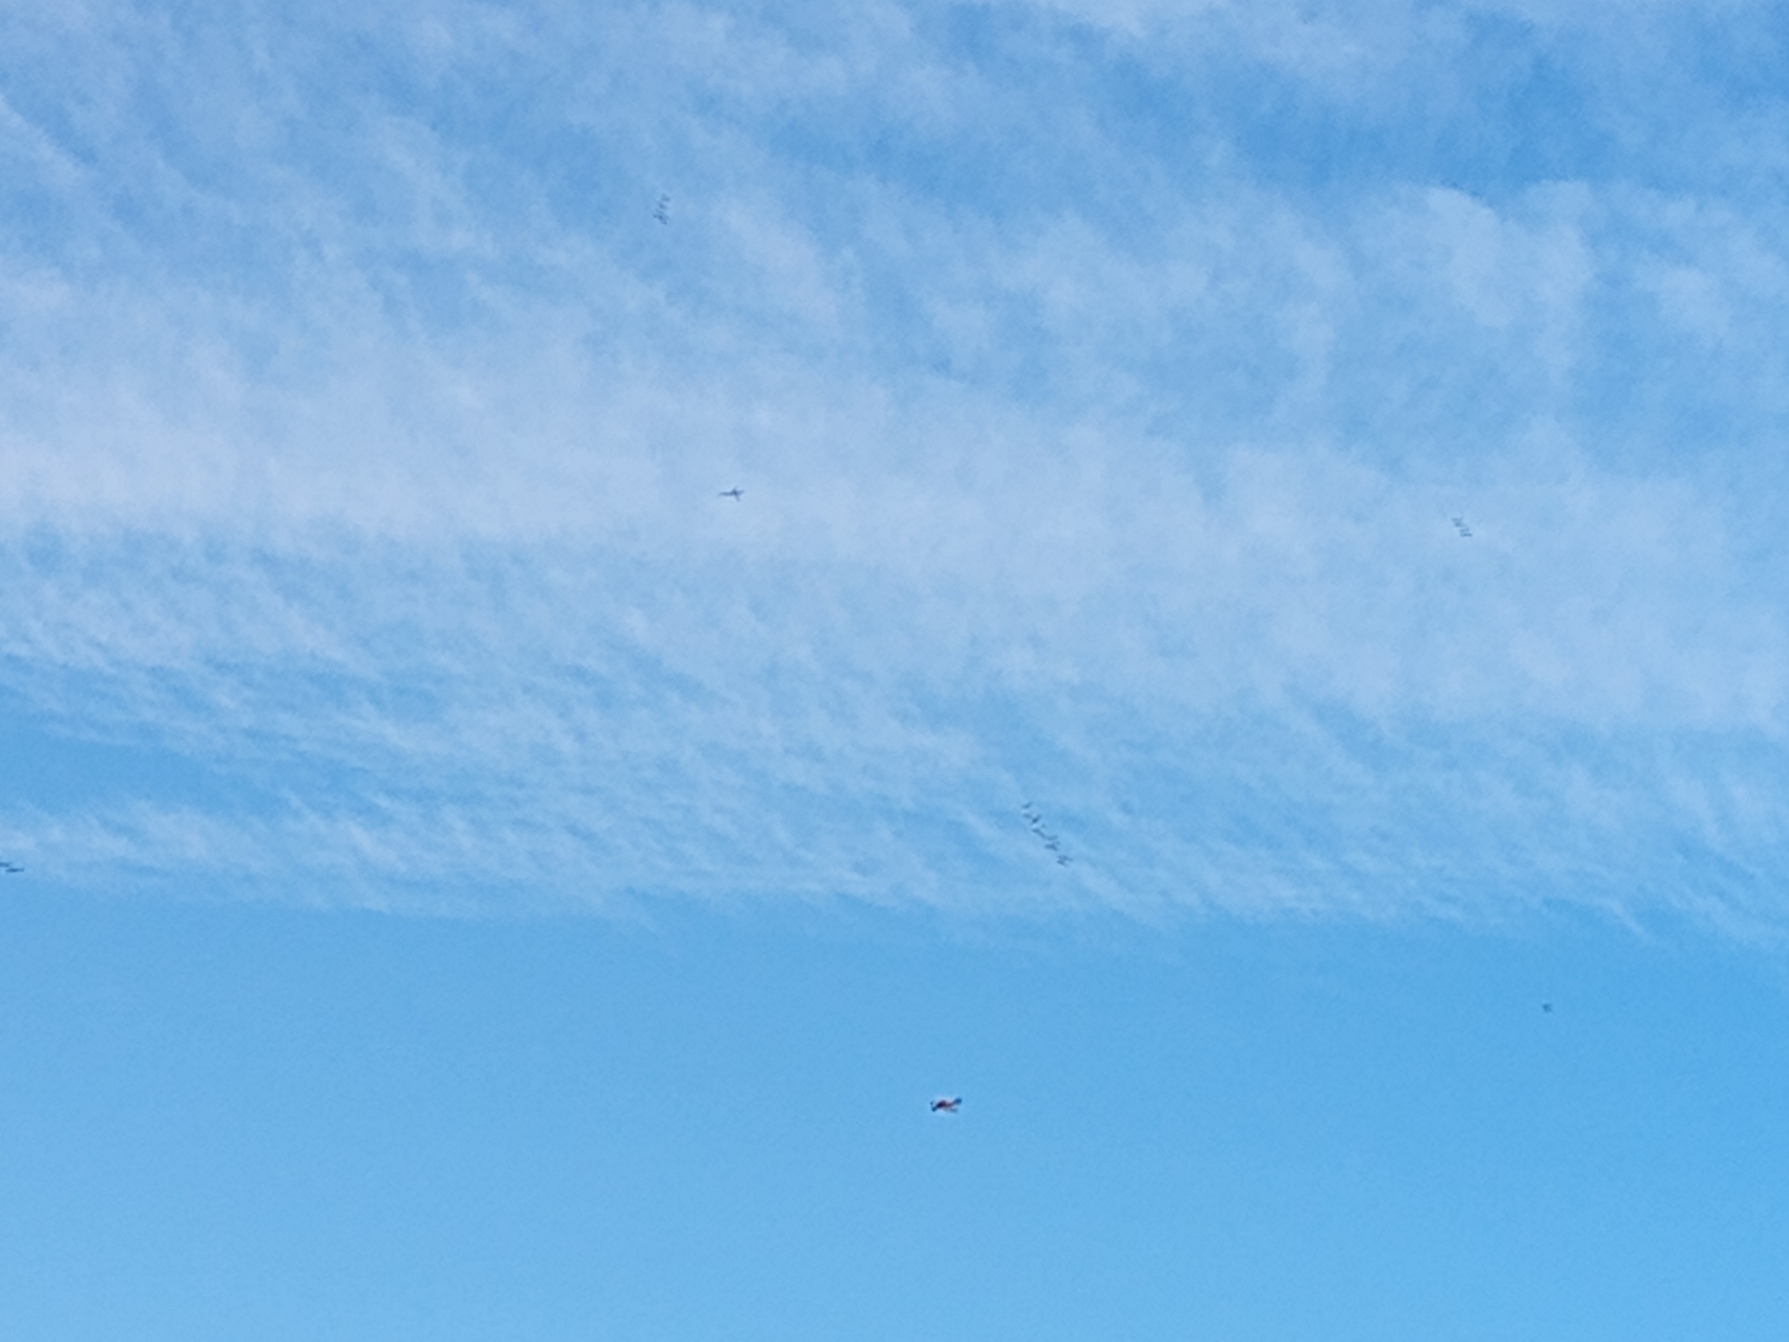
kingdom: Animalia
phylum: Chordata
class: Aves
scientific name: Aves
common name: Fugle
